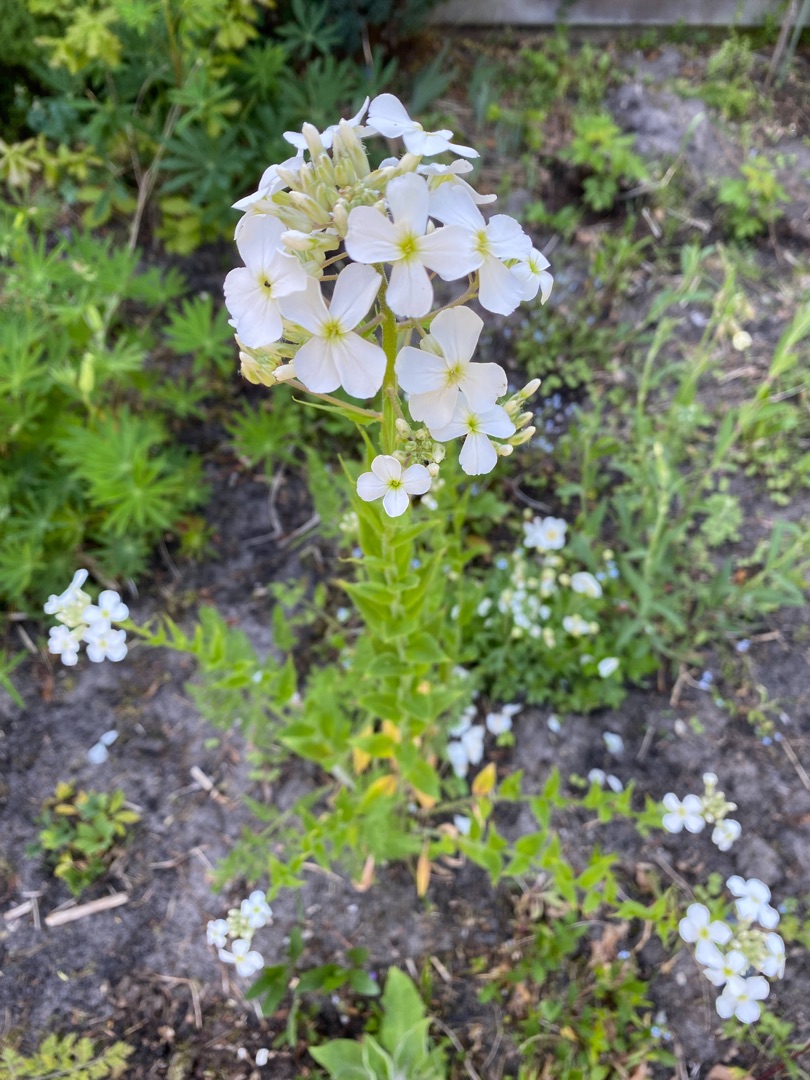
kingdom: Plantae
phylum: Tracheophyta
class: Magnoliopsida
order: Brassicales
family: Brassicaceae
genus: Hesperis
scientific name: Hesperis matronalis
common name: Aftenstjerne
